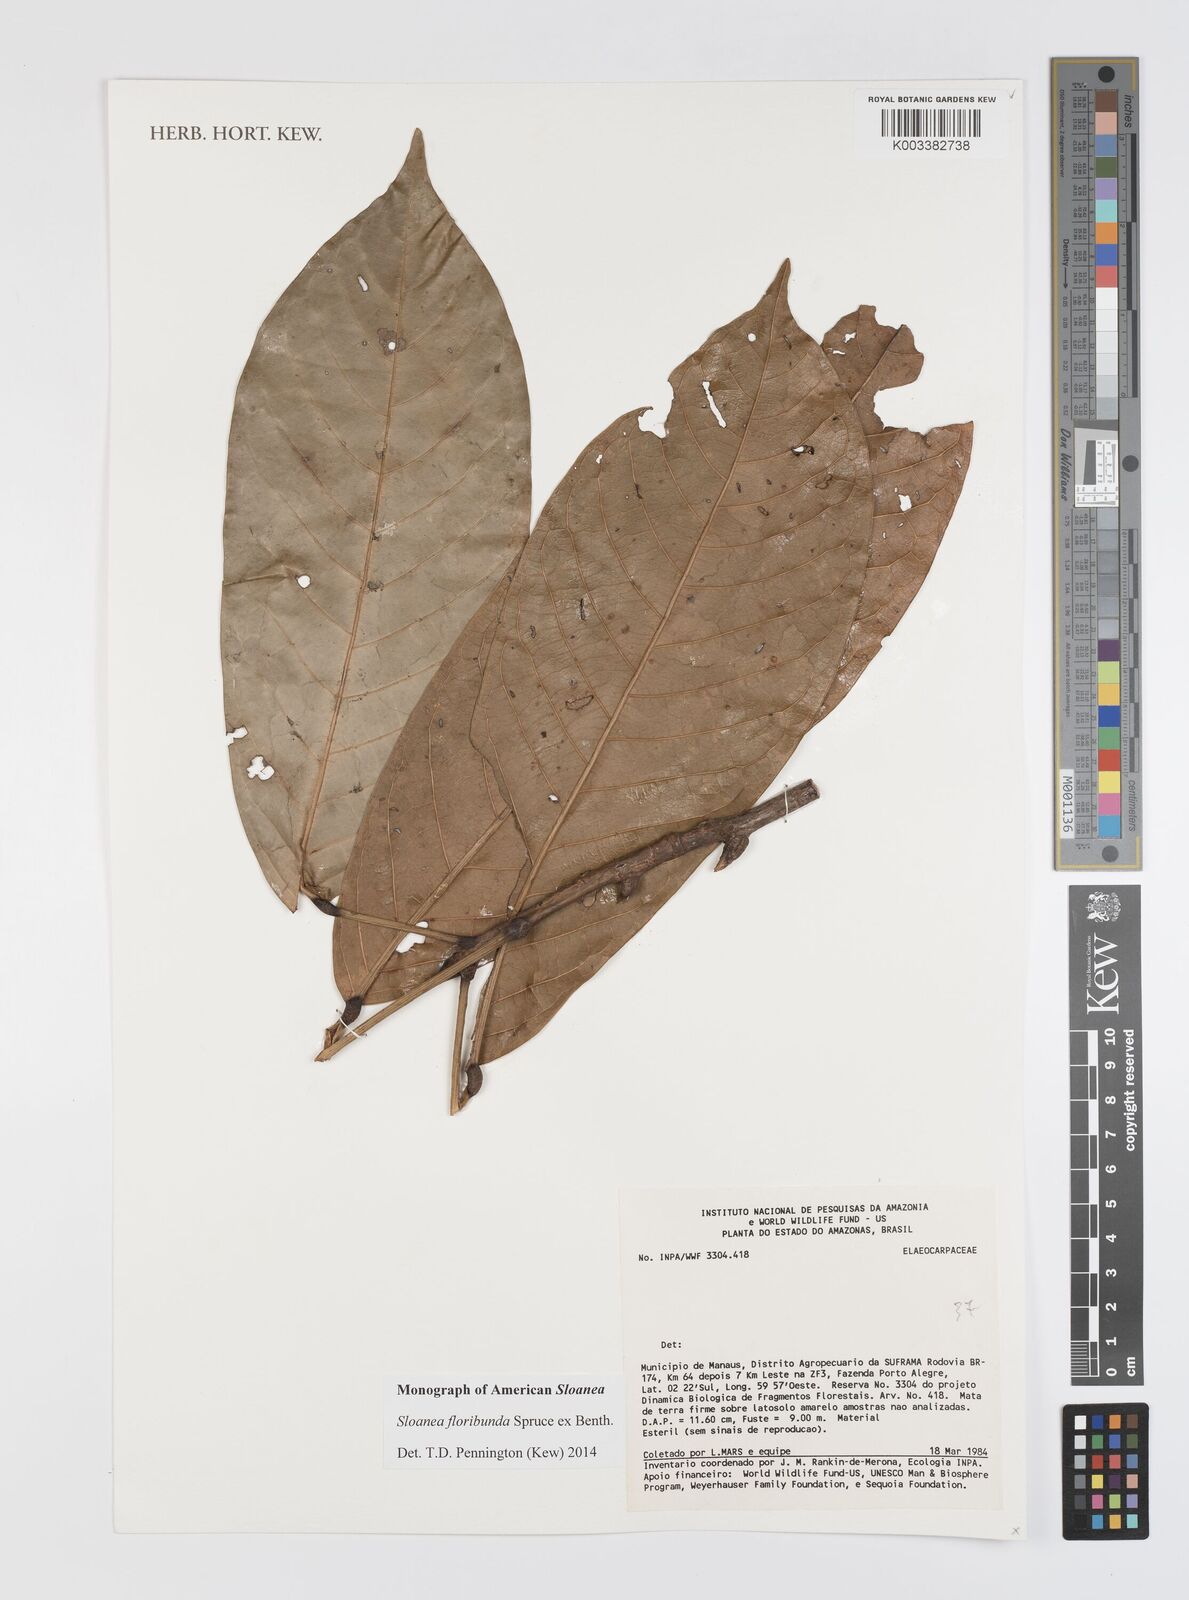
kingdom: Plantae
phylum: Tracheophyta
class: Magnoliopsida
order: Oxalidales
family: Elaeocarpaceae
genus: Sloanea
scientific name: Sloanea floribunda
